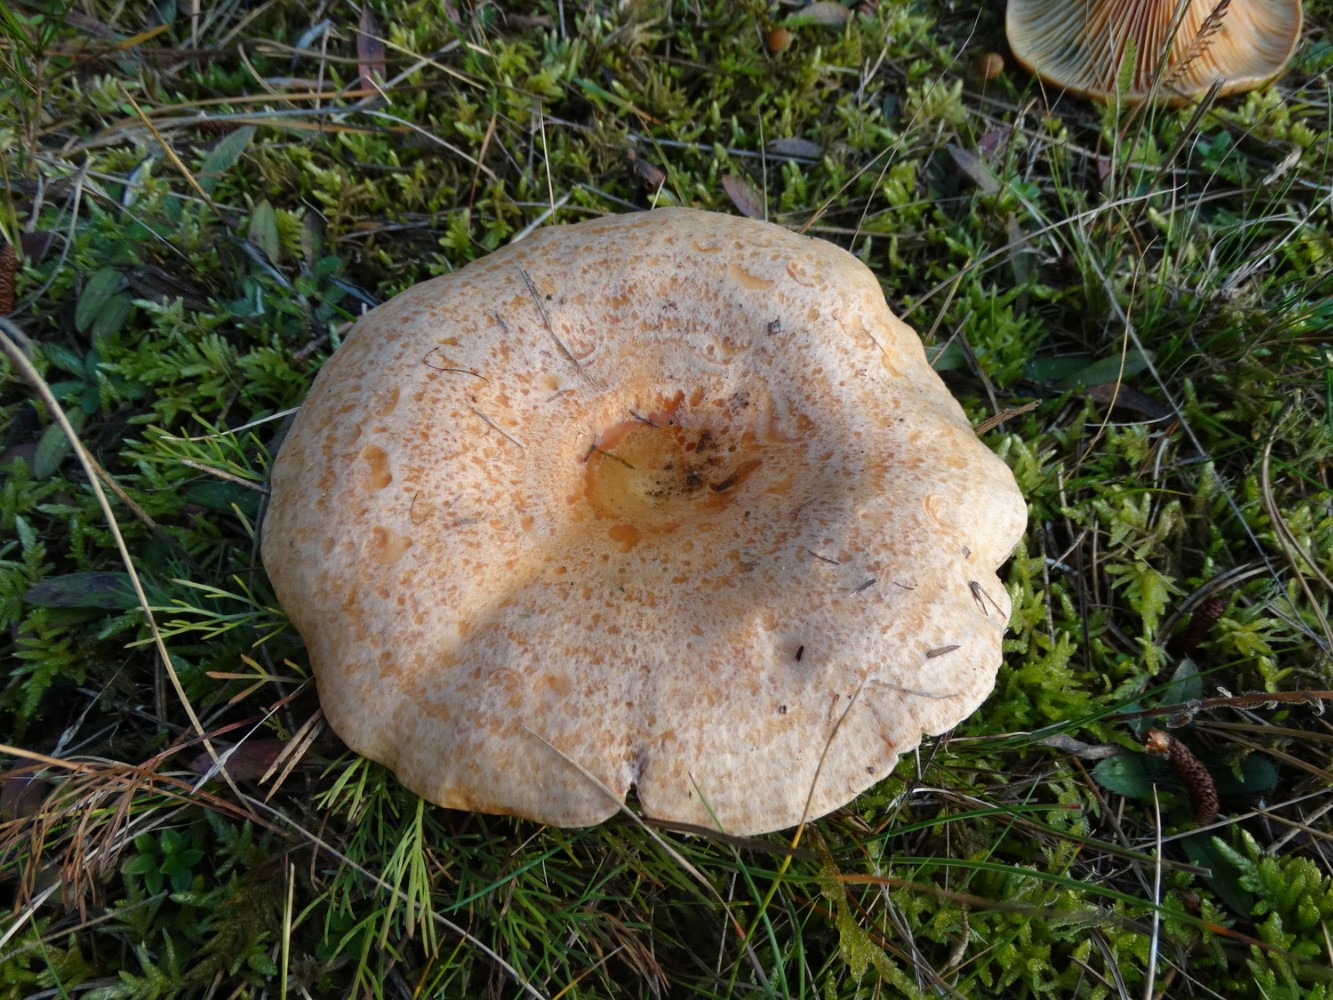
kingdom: Fungi
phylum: Basidiomycota
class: Agaricomycetes
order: Russulales
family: Russulaceae
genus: Lactarius
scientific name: Lactarius deliciosus
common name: velsmagende mælkehat
